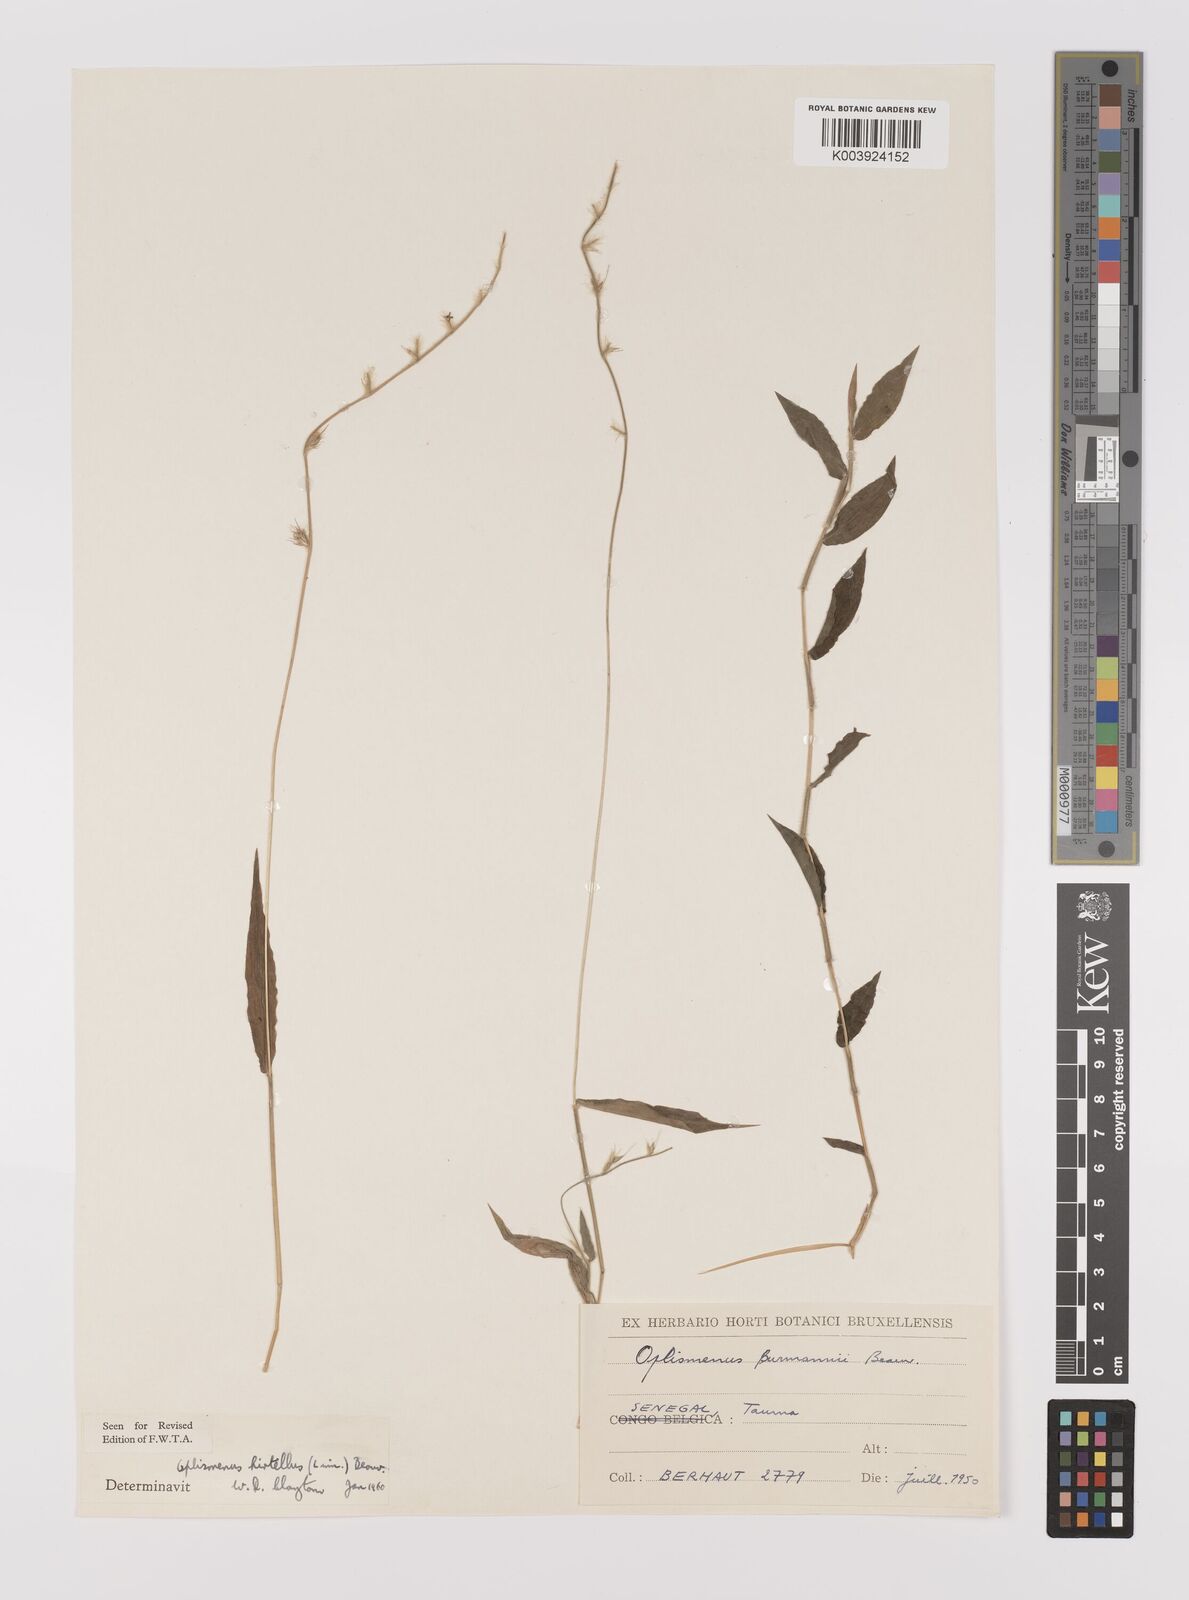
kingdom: Plantae
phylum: Tracheophyta
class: Liliopsida
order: Poales
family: Poaceae
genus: Oplismenus
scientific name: Oplismenus hirtellus
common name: Basketgrass
